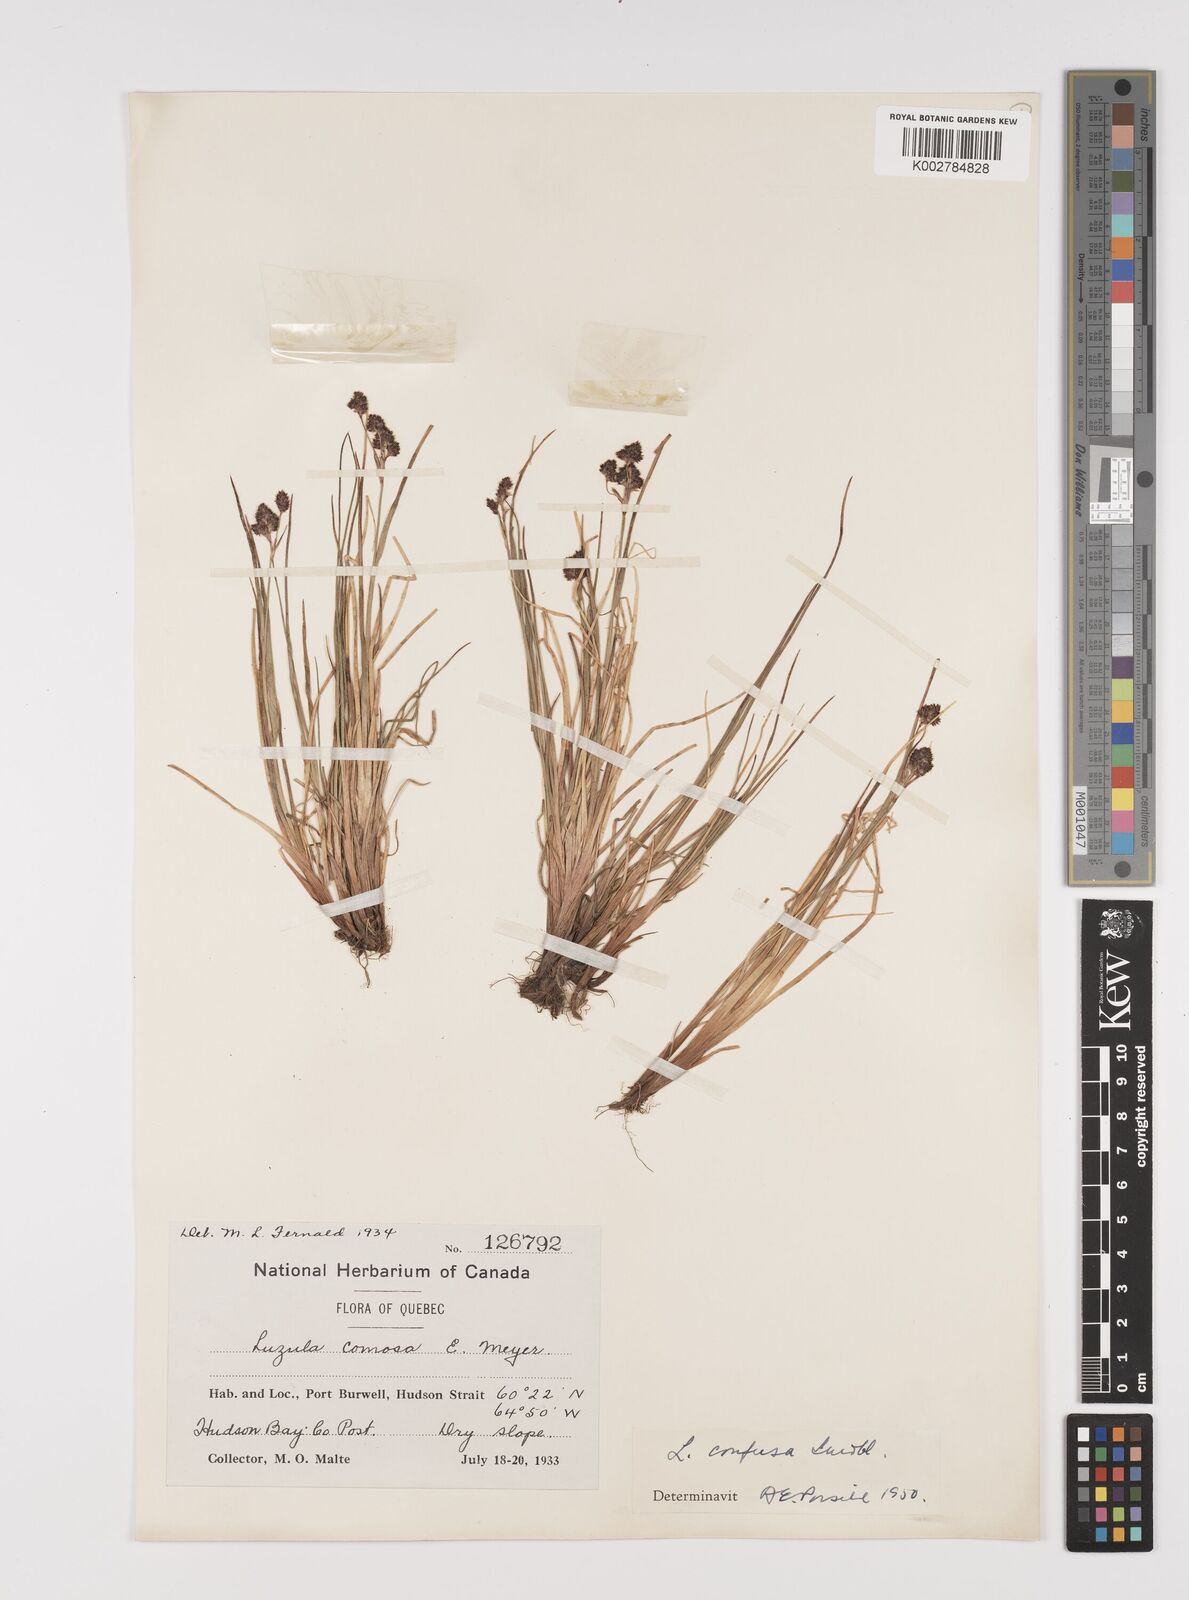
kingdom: Plantae
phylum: Tracheophyta
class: Liliopsida
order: Poales
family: Juncaceae
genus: Luzula
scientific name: Luzula confusa
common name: Northern wood rush
